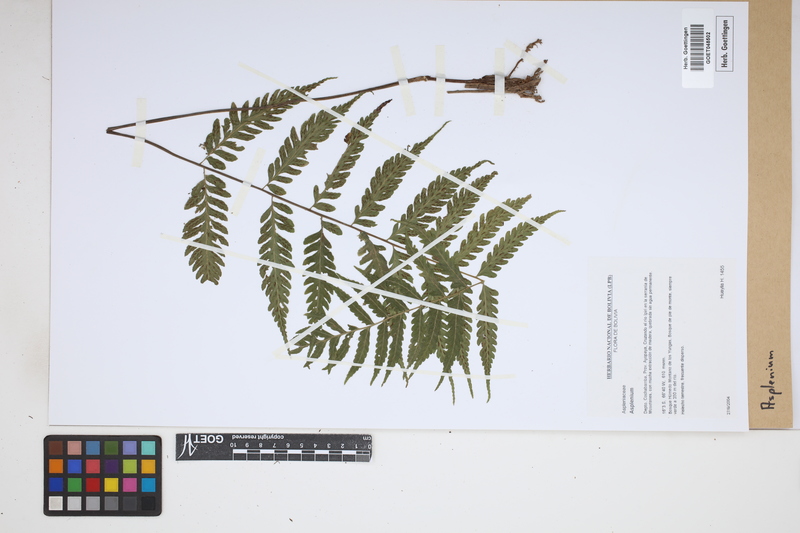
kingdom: Plantae
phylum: Tracheophyta
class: Polypodiopsida
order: Polypodiales
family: Aspleniaceae
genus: Asplenium
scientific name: Asplenium
